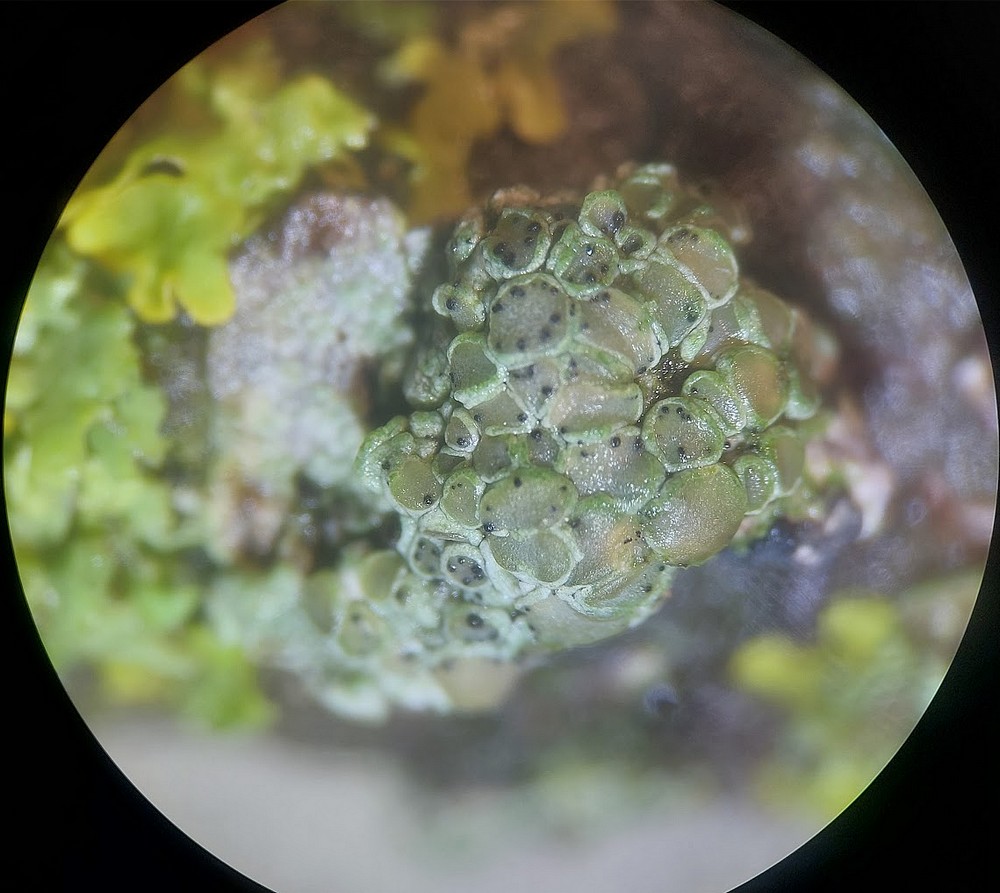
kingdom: Fungi
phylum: Ascomycota
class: Dothideomycetes
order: Pleosporales
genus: Vouauxiella
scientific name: Vouauxiella lichenicola
